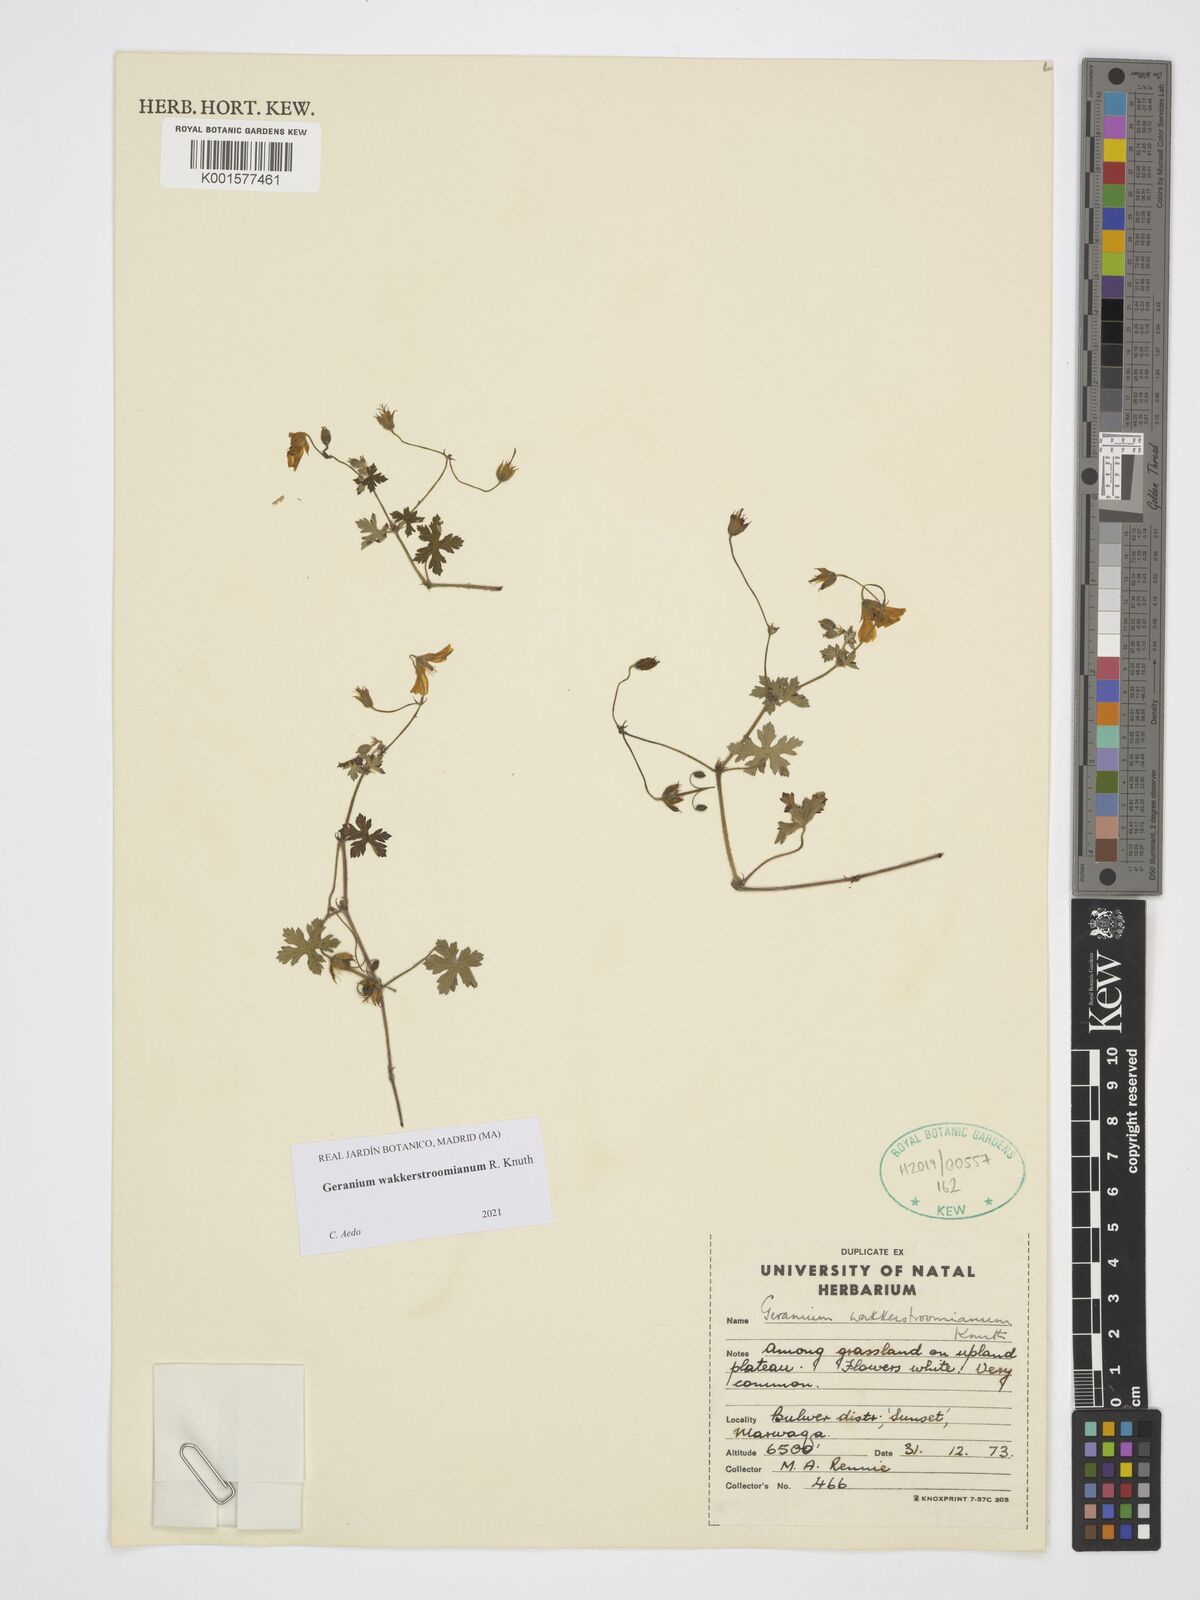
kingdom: Plantae
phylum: Tracheophyta
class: Magnoliopsida
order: Geraniales
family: Geraniaceae
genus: Geranium
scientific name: Geranium wakkerstroomianum
